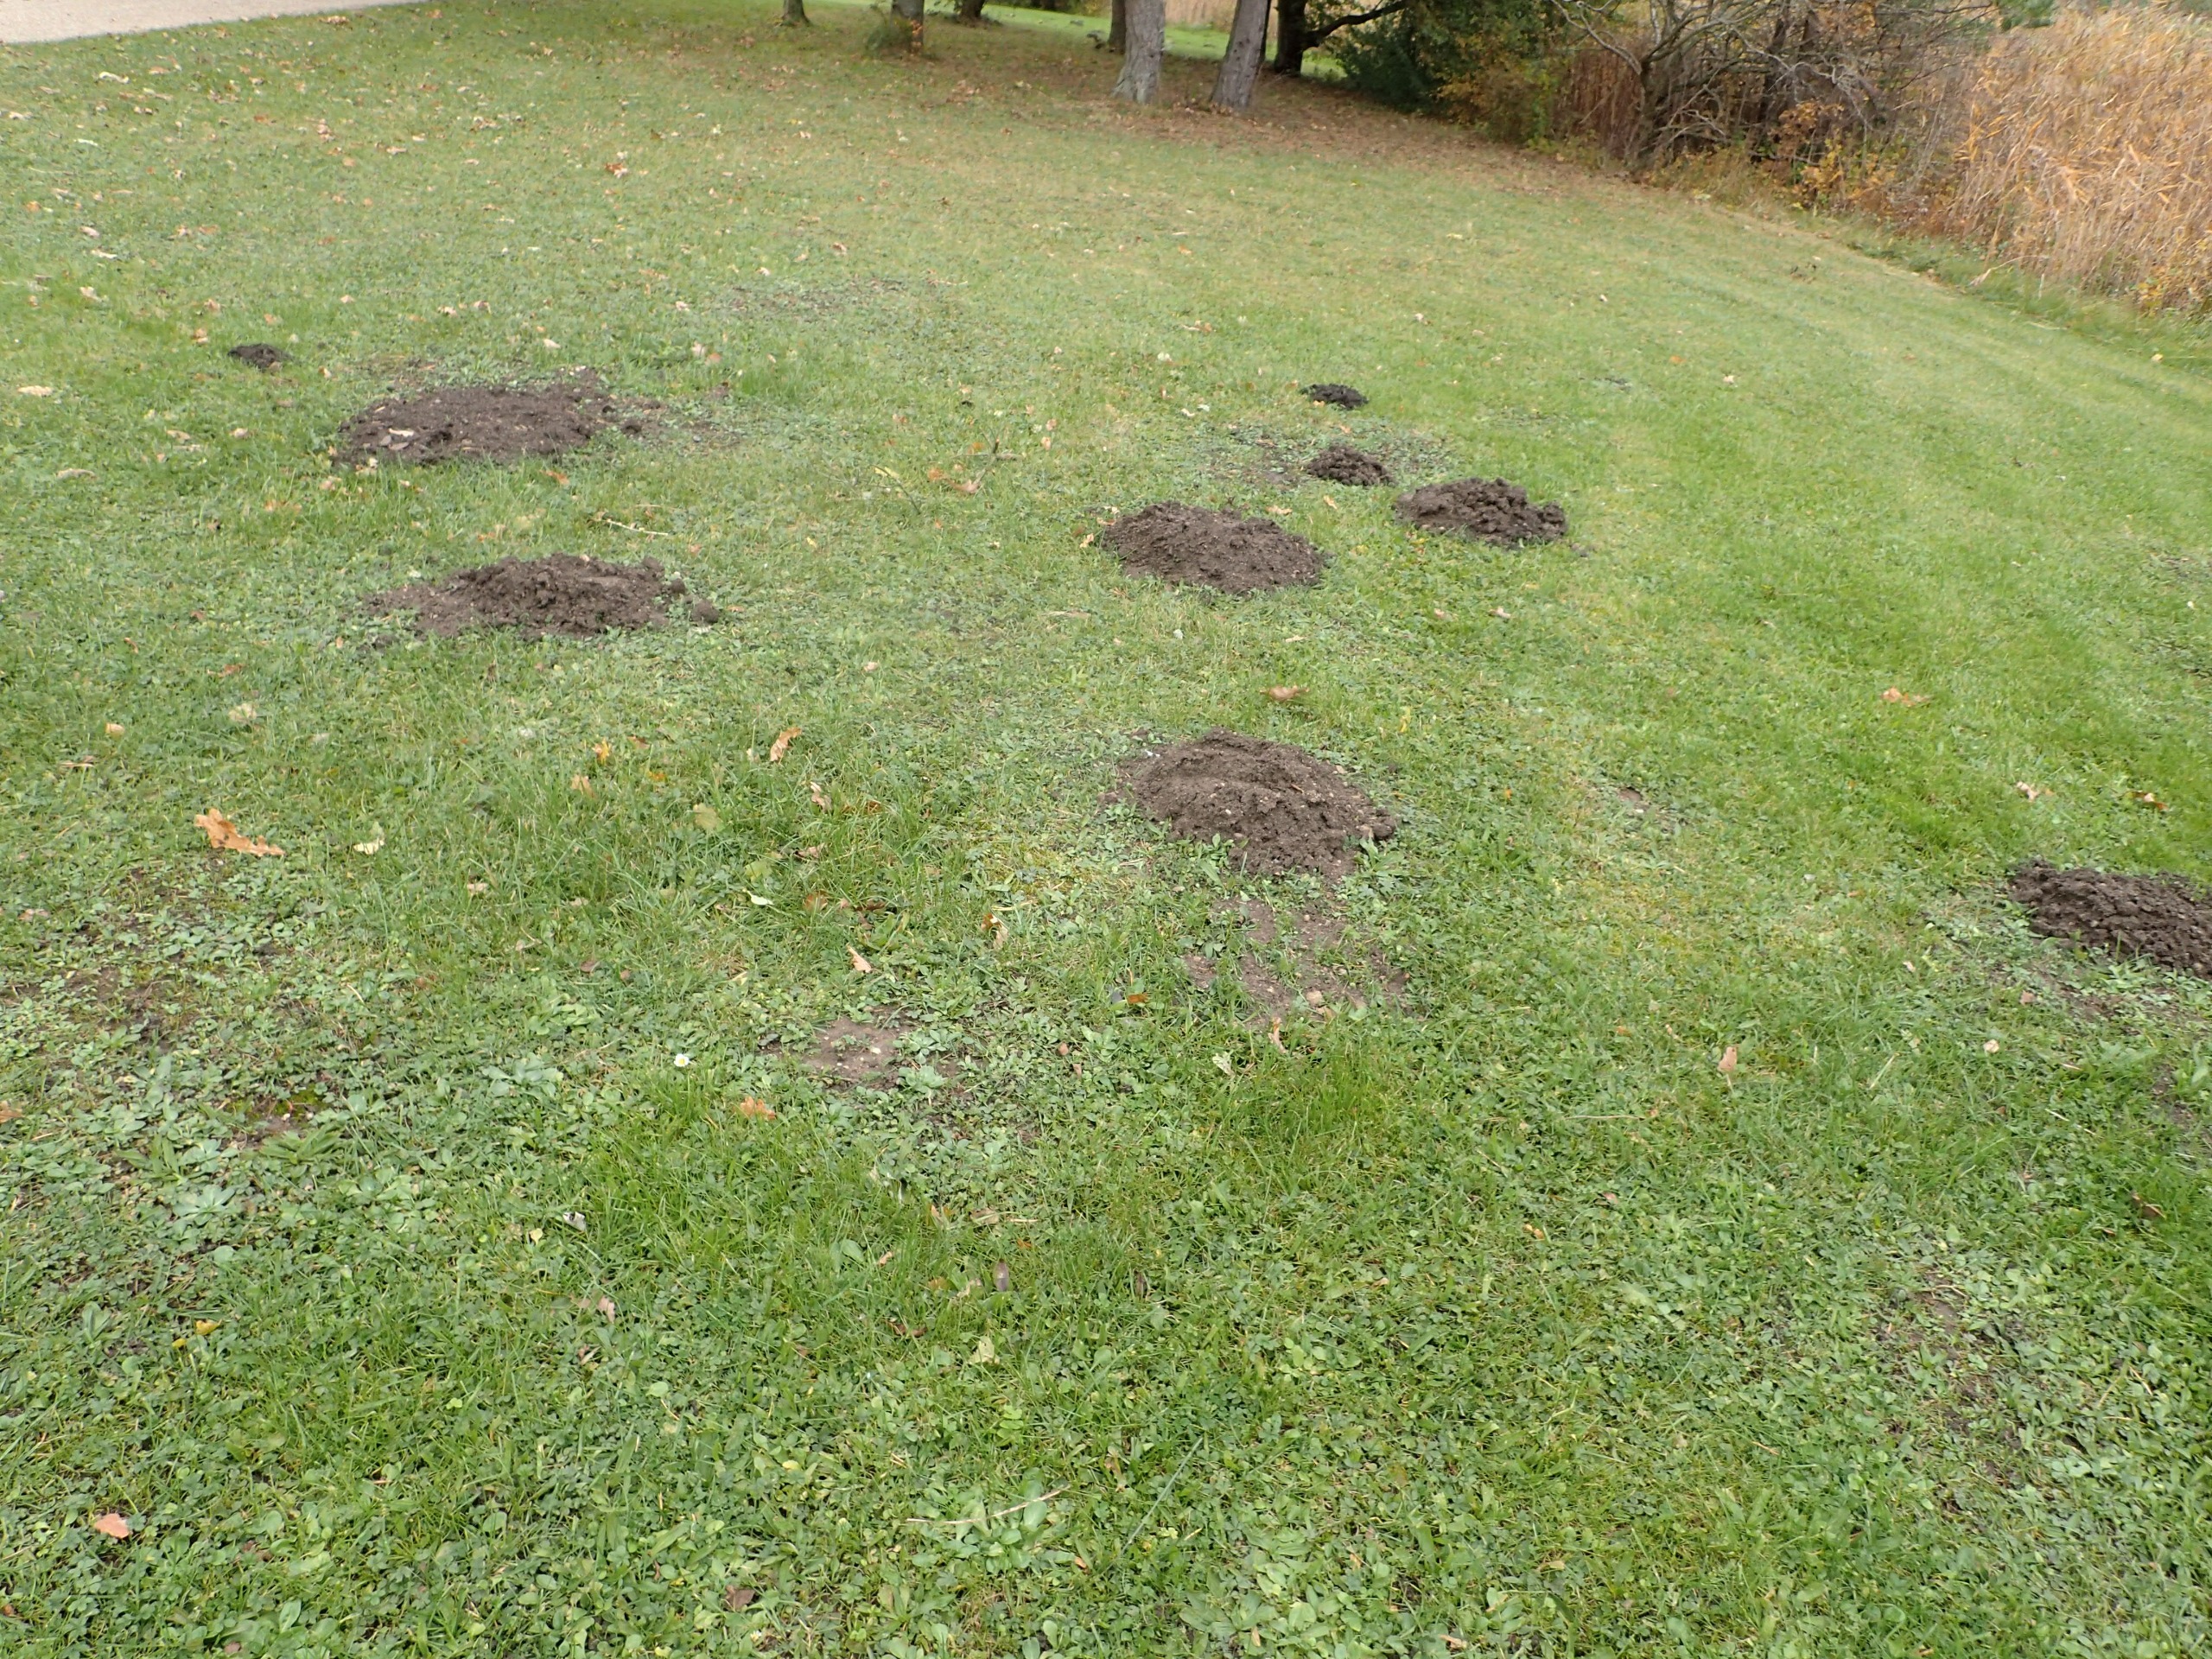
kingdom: Animalia
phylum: Chordata
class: Mammalia
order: Soricomorpha
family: Talpidae
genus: Talpa
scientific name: Talpa europaea
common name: Muldvarp
